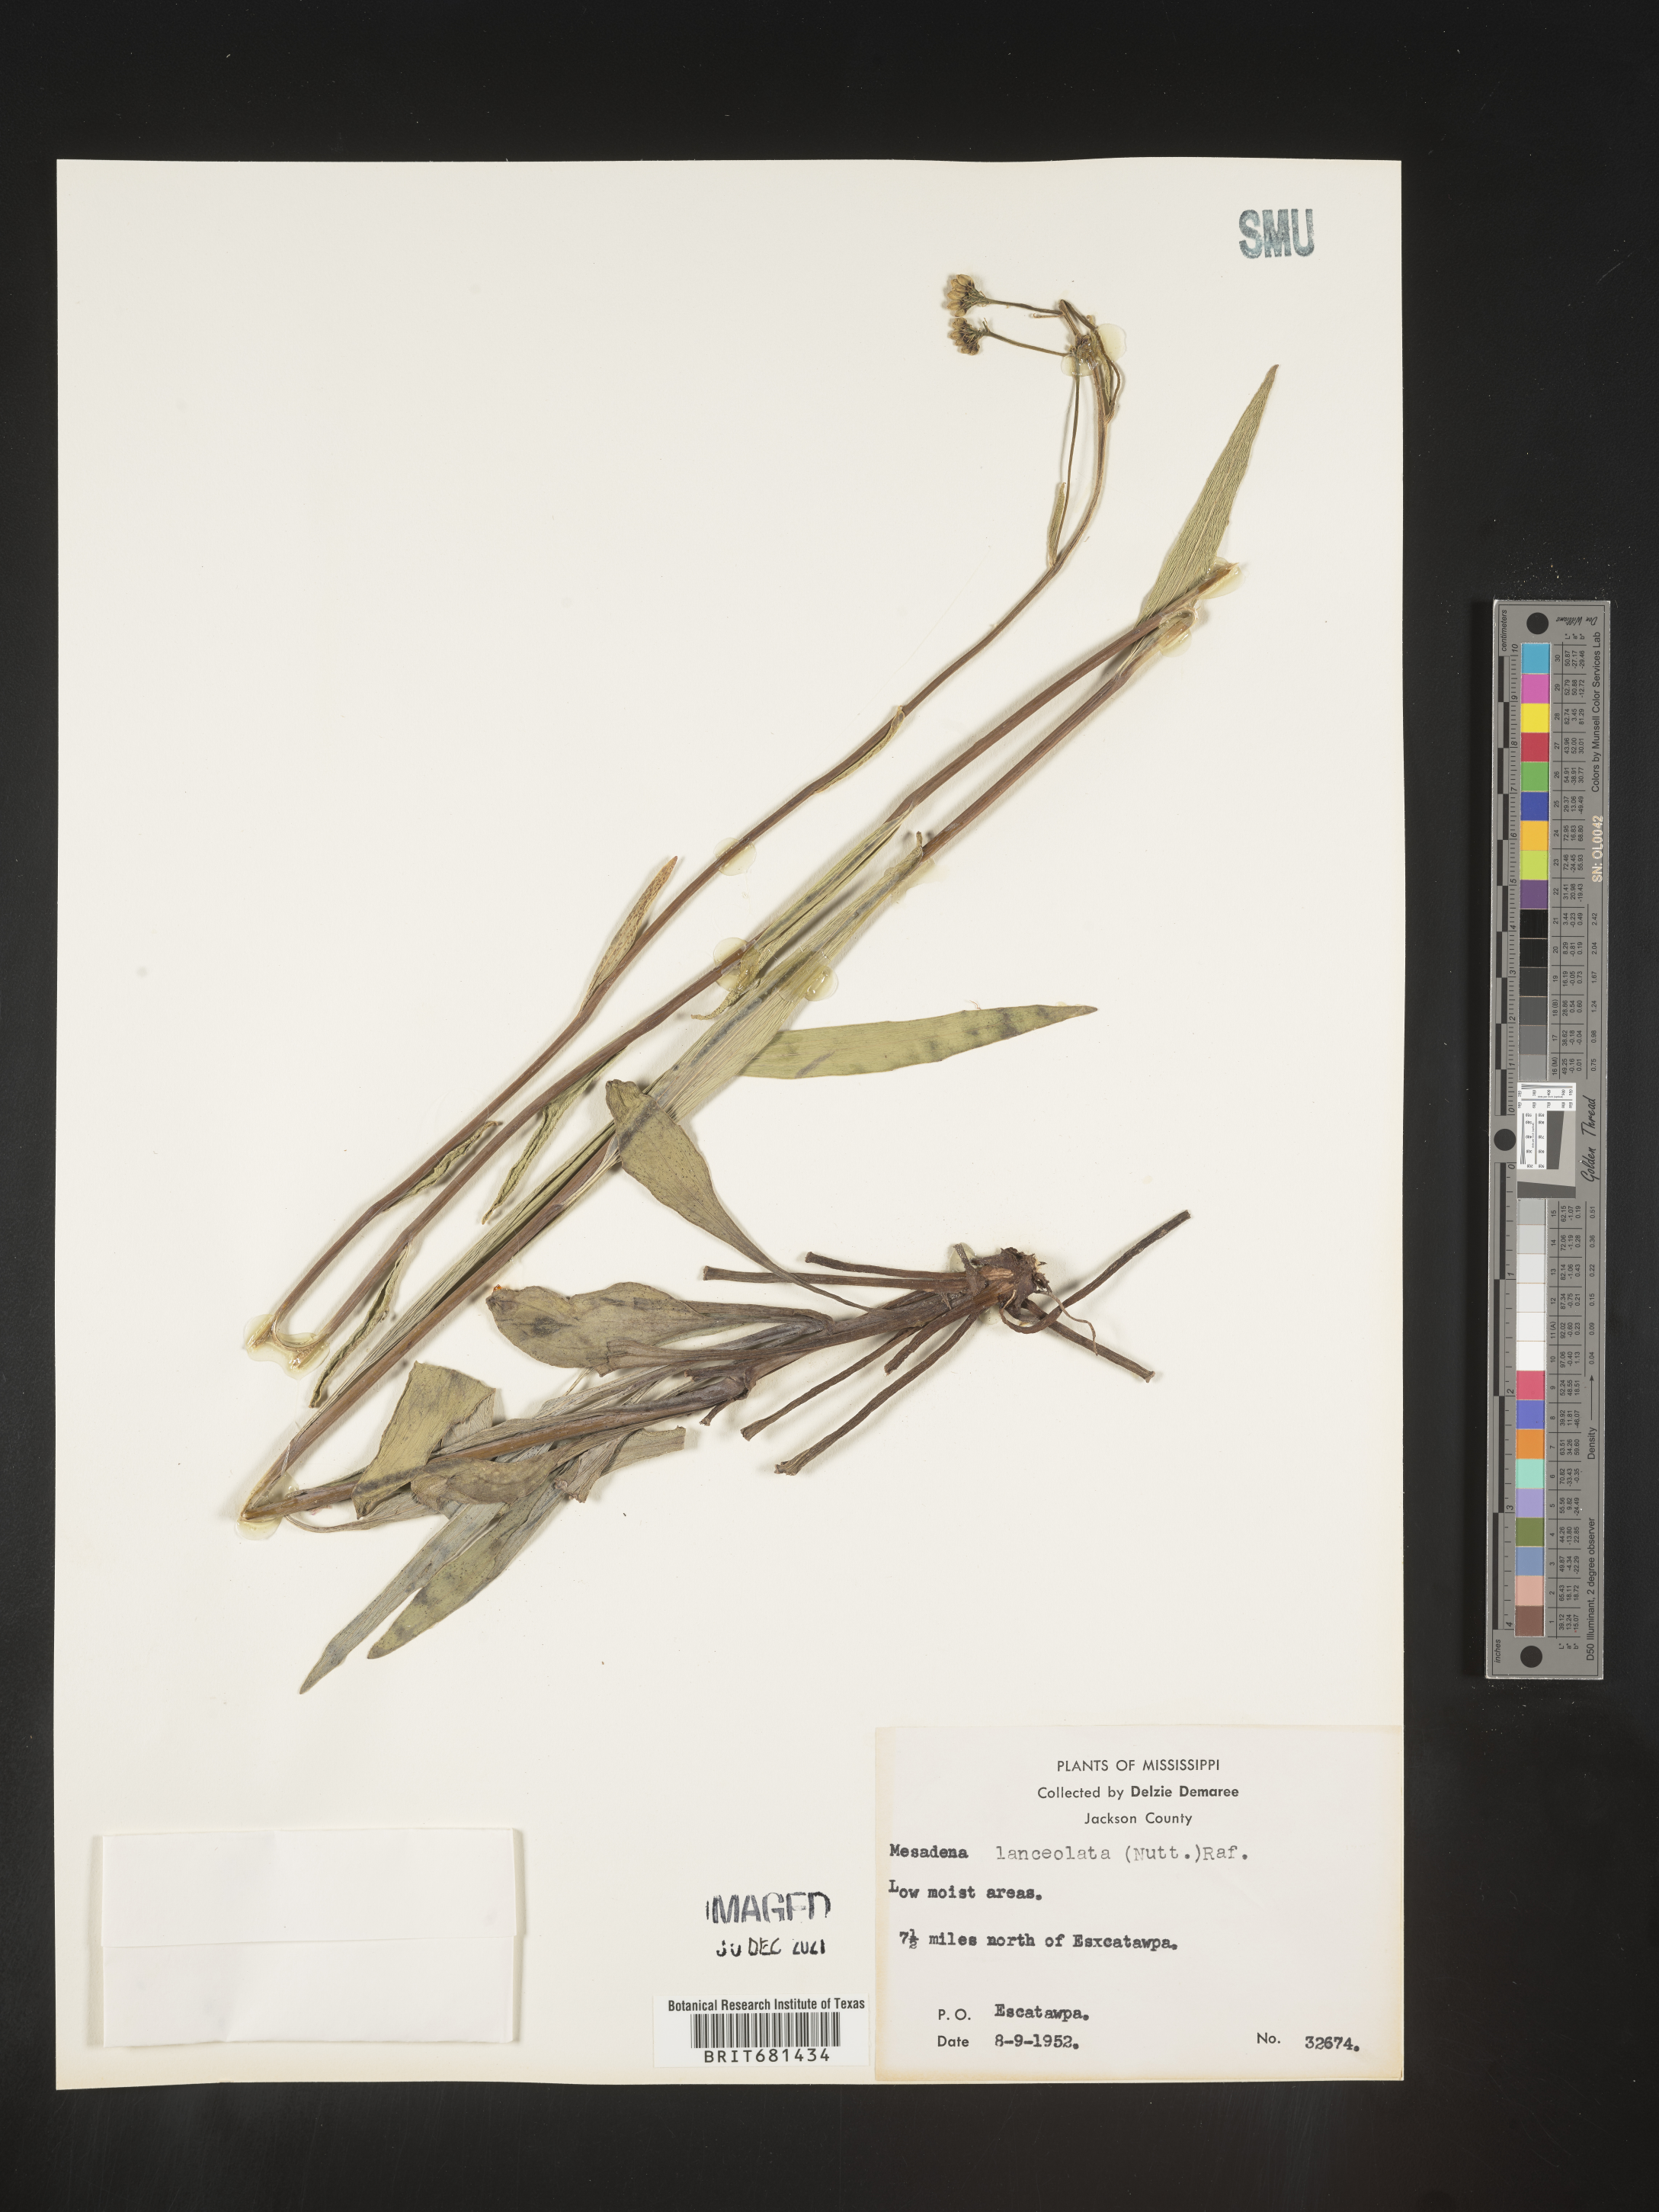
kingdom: Plantae
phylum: Tracheophyta
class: Magnoliopsida
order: Asterales
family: Asteraceae
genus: Arnoglossum
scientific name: Arnoglossum ovatum
